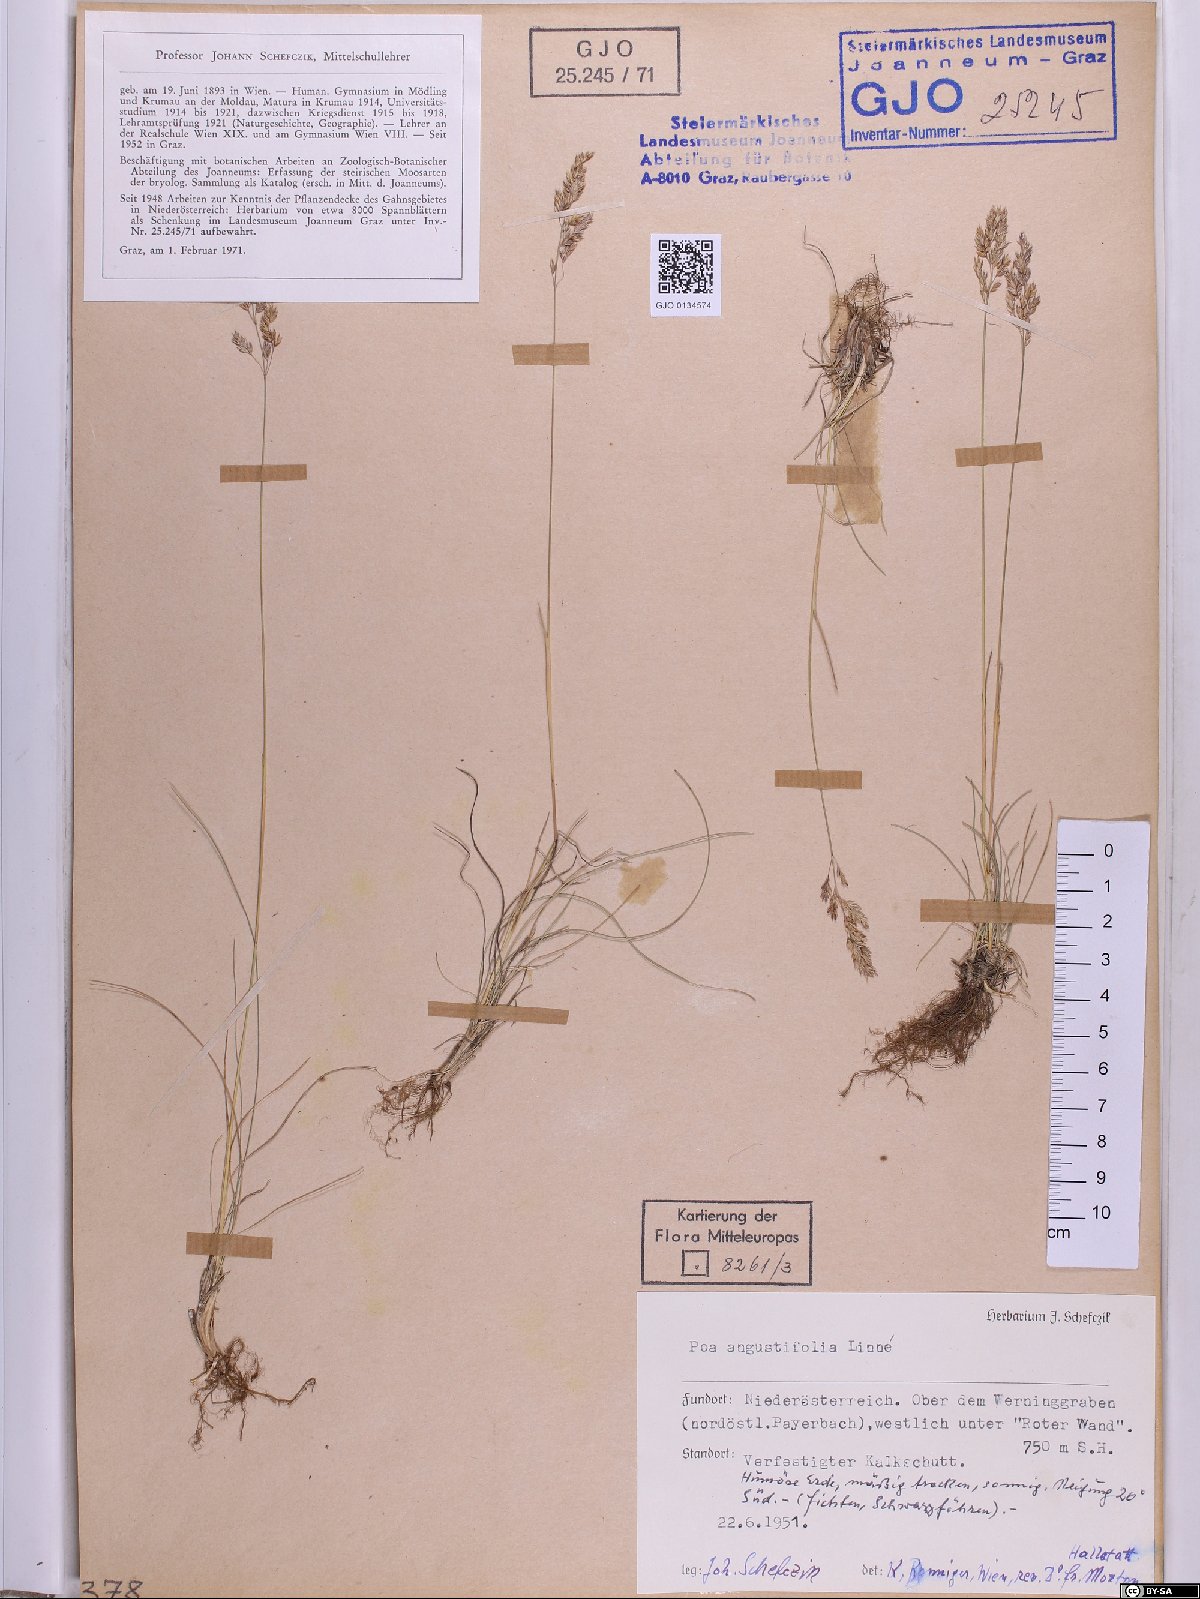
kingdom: Plantae
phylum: Tracheophyta
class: Liliopsida
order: Poales
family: Poaceae
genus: Poa
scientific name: Poa angustifolia
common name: Narrow-leaved meadow-grass
